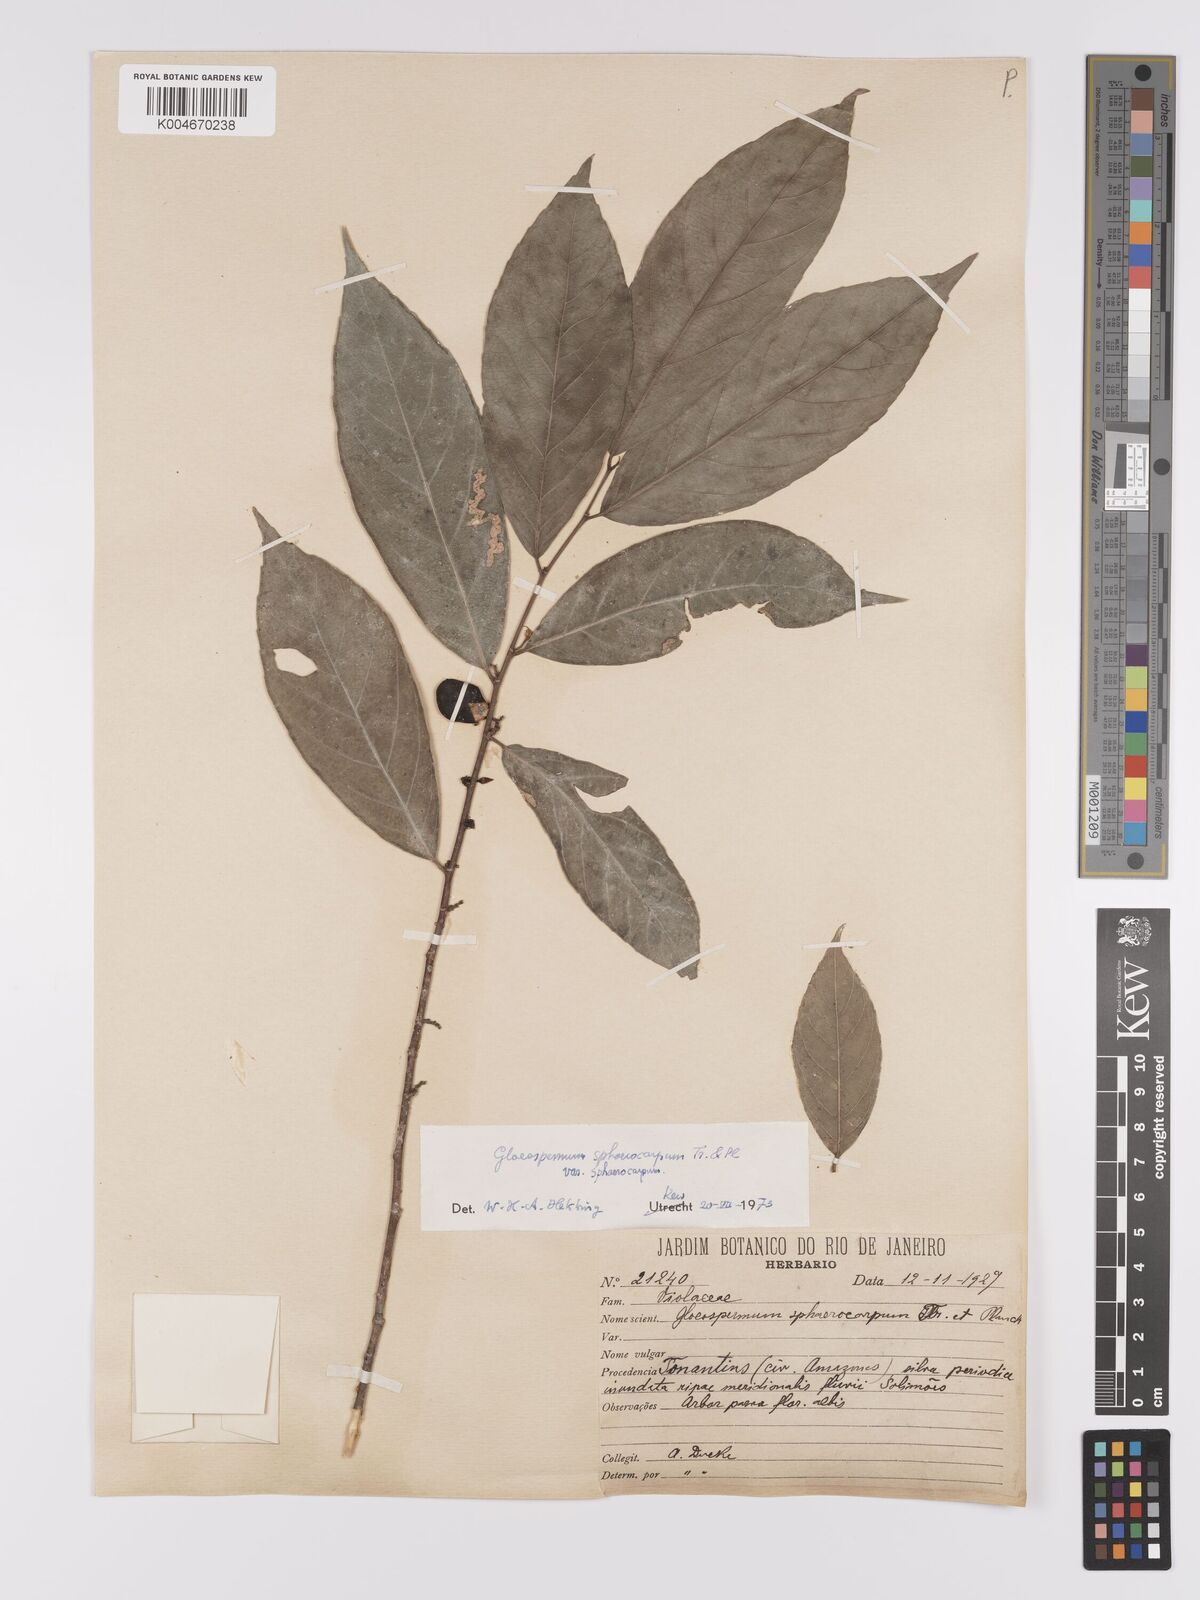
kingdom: Plantae
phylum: Tracheophyta
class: Magnoliopsida
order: Malpighiales
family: Violaceae
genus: Gloeospermum
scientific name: Gloeospermum sphaerocarpum
